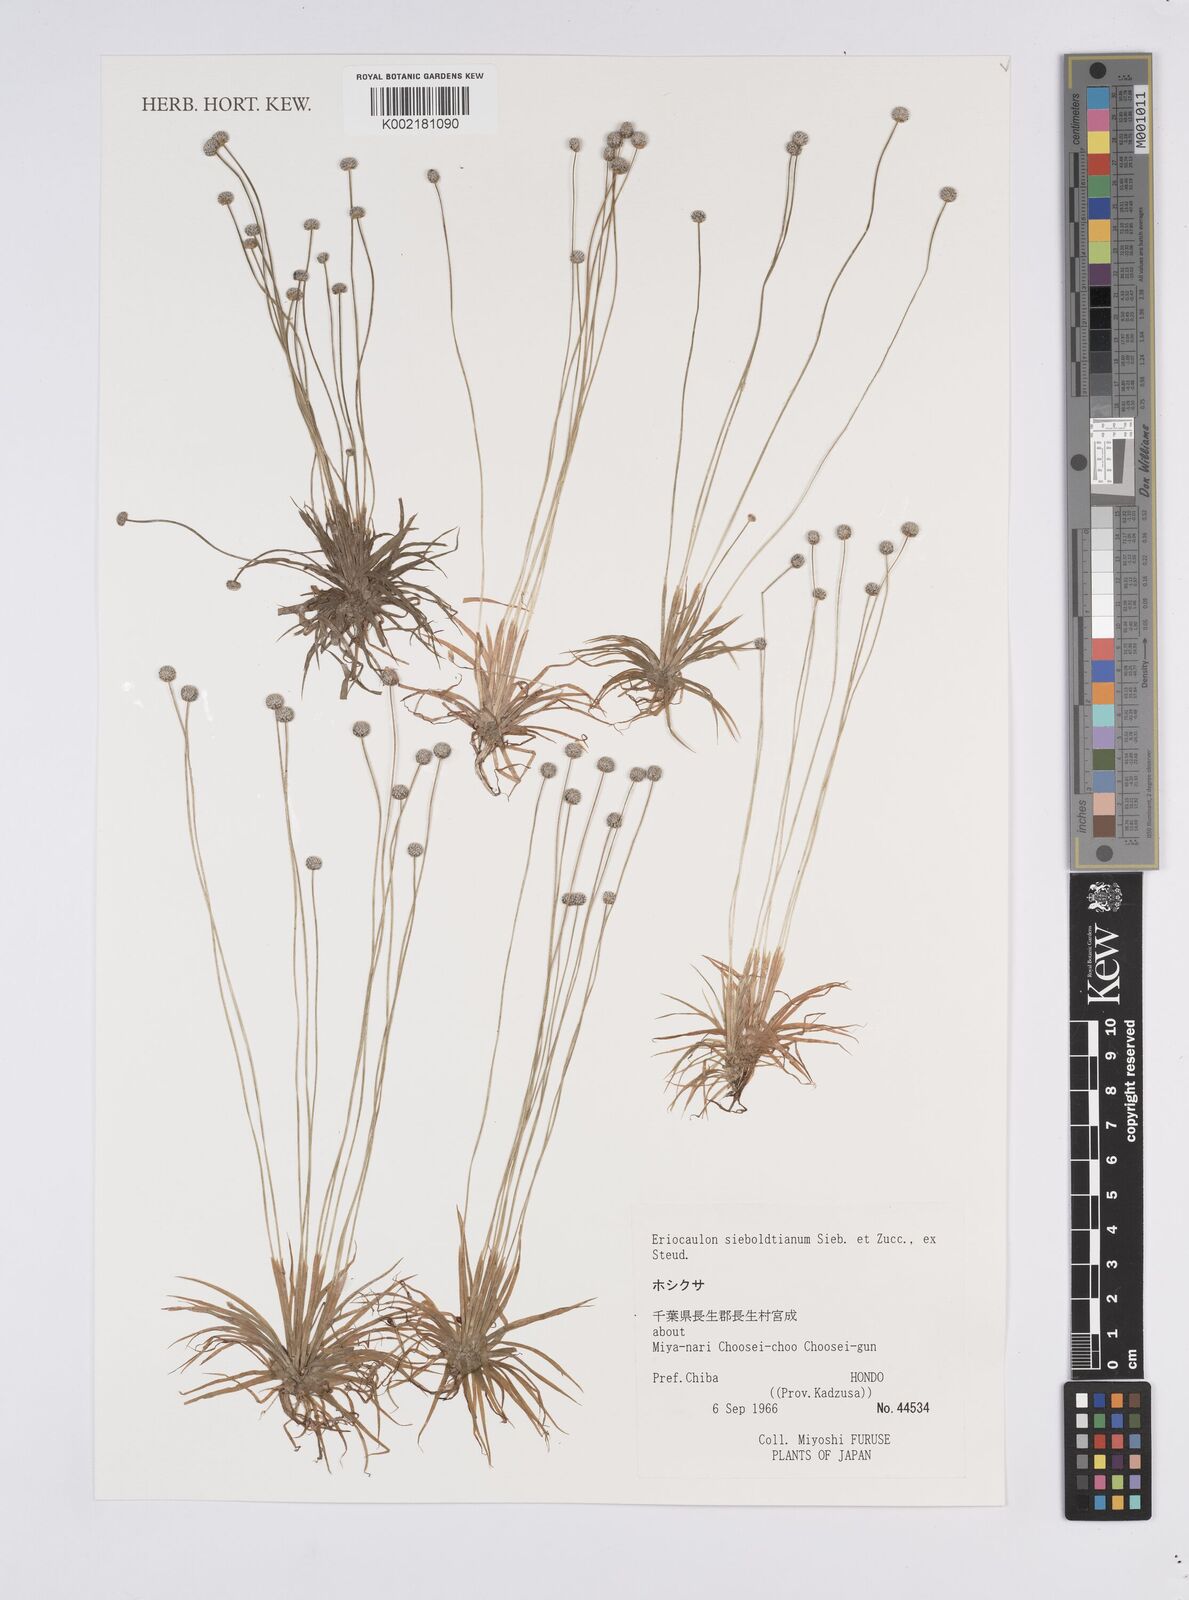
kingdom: Plantae
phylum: Tracheophyta
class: Liliopsida
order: Poales
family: Eriocaulaceae
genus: Eriocaulon
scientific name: Eriocaulon cinereum
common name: Ashy pipewort
